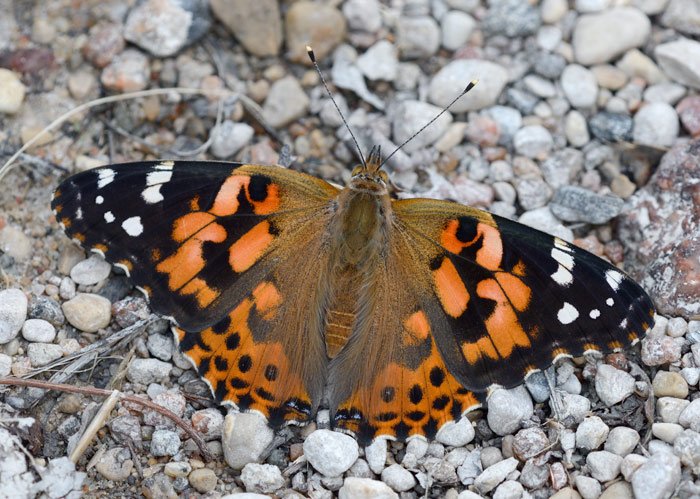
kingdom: Animalia
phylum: Arthropoda
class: Insecta
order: Lepidoptera
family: Nymphalidae
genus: Vanessa
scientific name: Vanessa cardui
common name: Painted Lady
